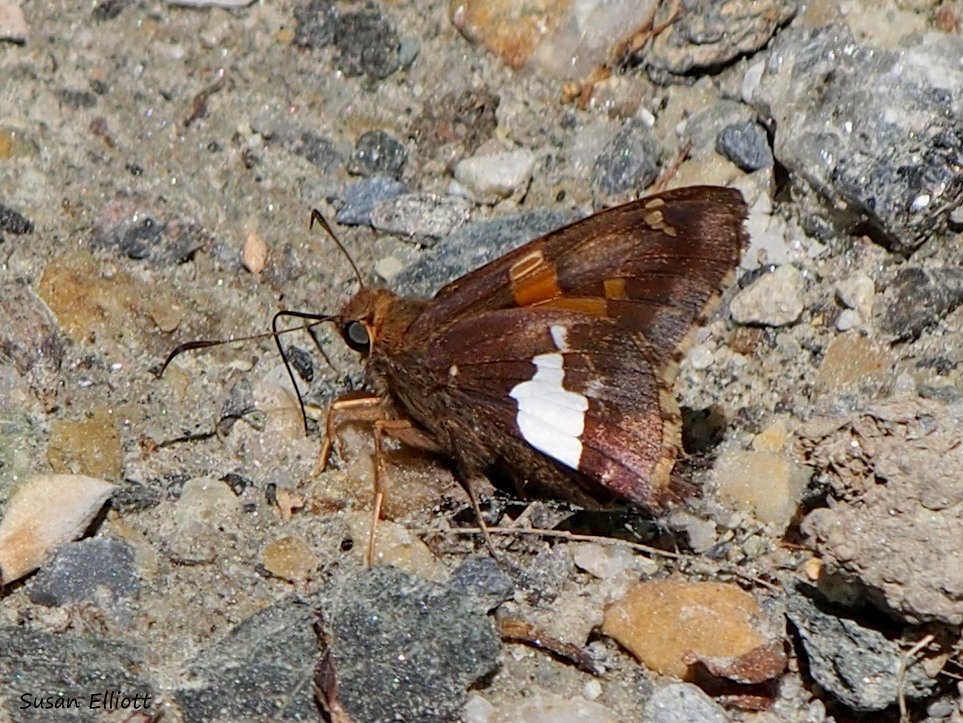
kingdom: Animalia
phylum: Arthropoda
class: Insecta
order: Lepidoptera
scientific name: Lepidoptera
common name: Butterflies
